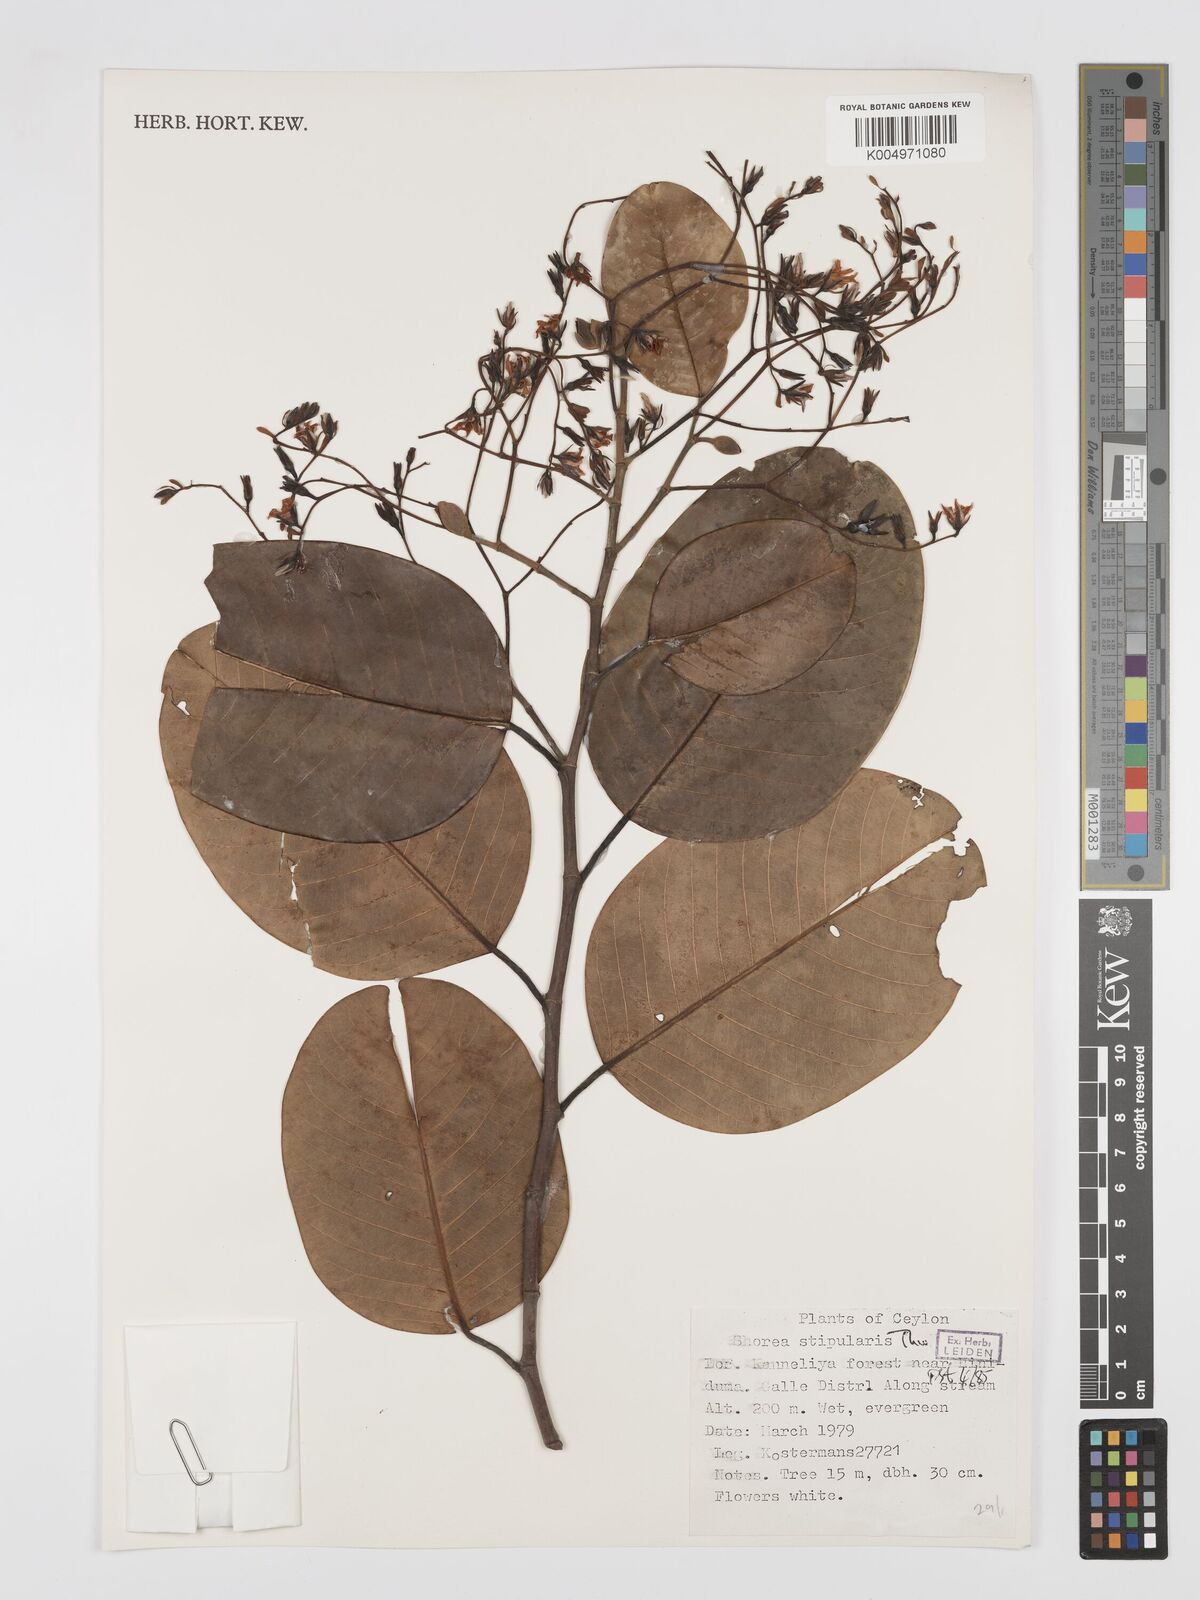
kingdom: Plantae
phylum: Tracheophyta
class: Magnoliopsida
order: Malvales
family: Dipterocarpaceae
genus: Anthoshorea
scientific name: Anthoshorea stipularis
